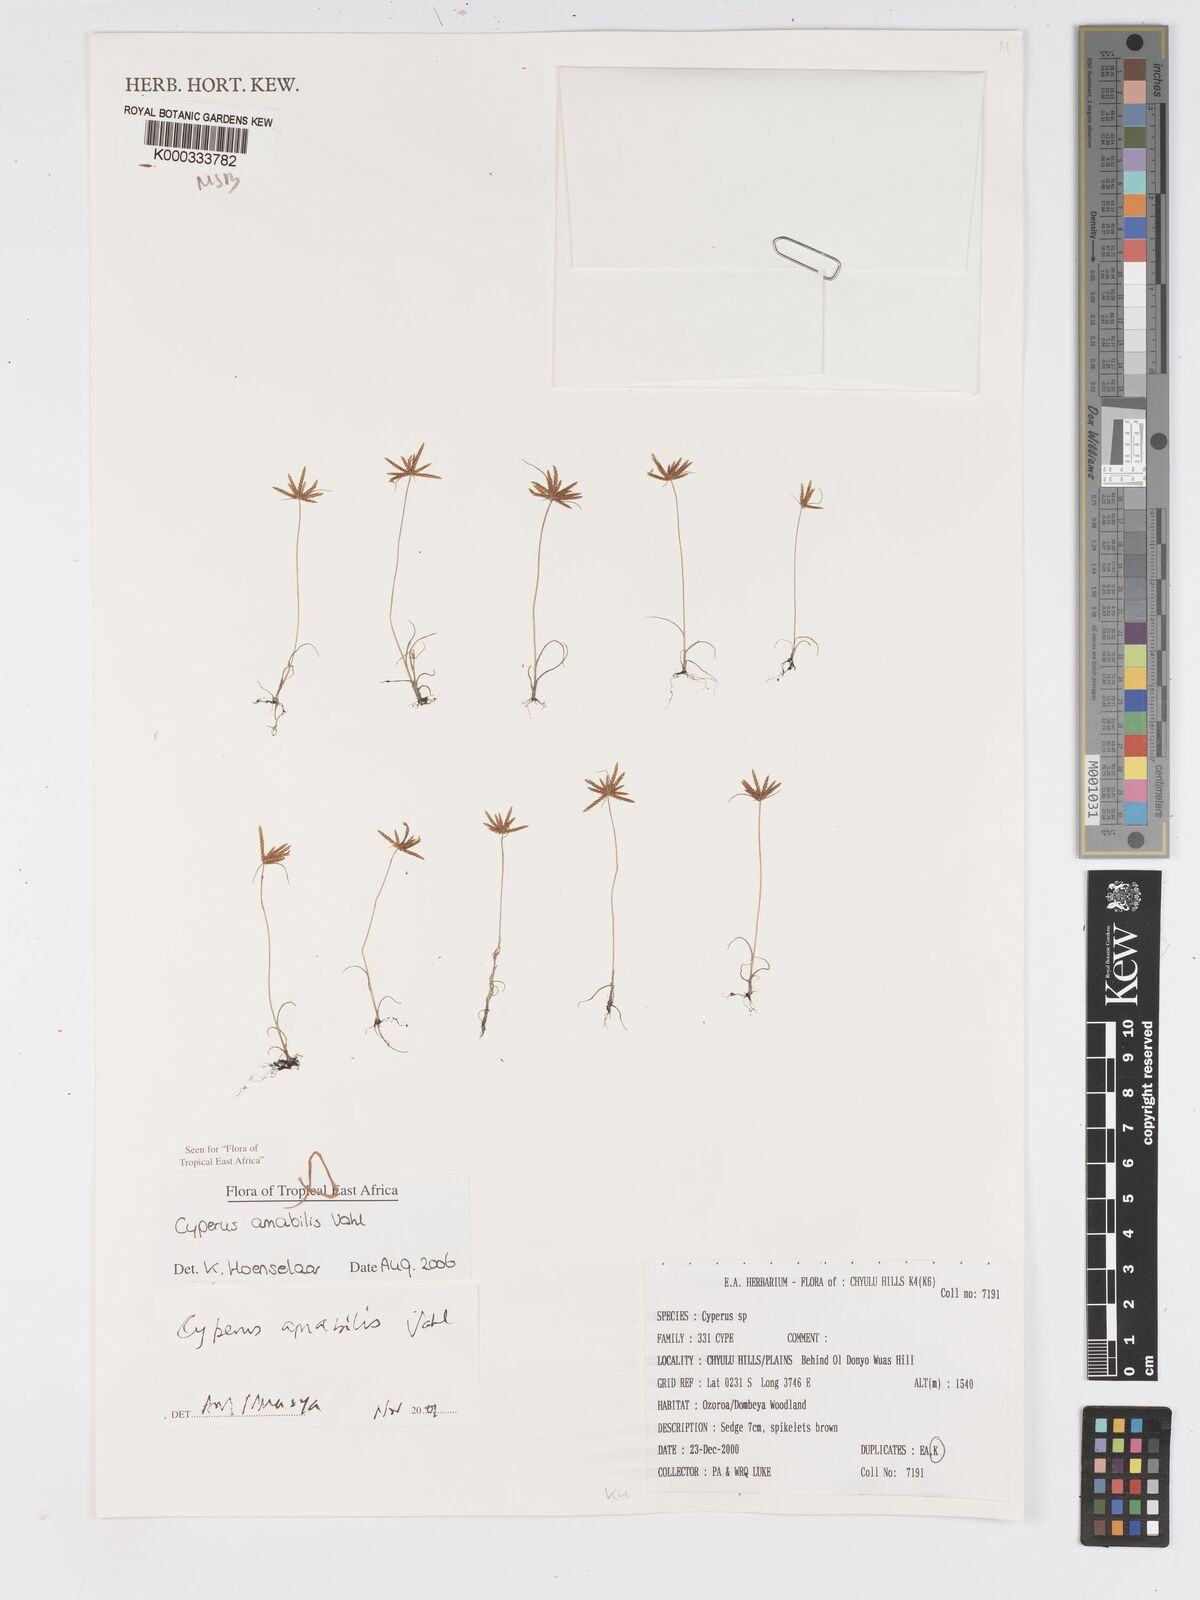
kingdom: Plantae
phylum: Tracheophyta
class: Liliopsida
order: Poales
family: Cyperaceae
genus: Cyperus
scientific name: Cyperus amabilis
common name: Foothill flat sedge
